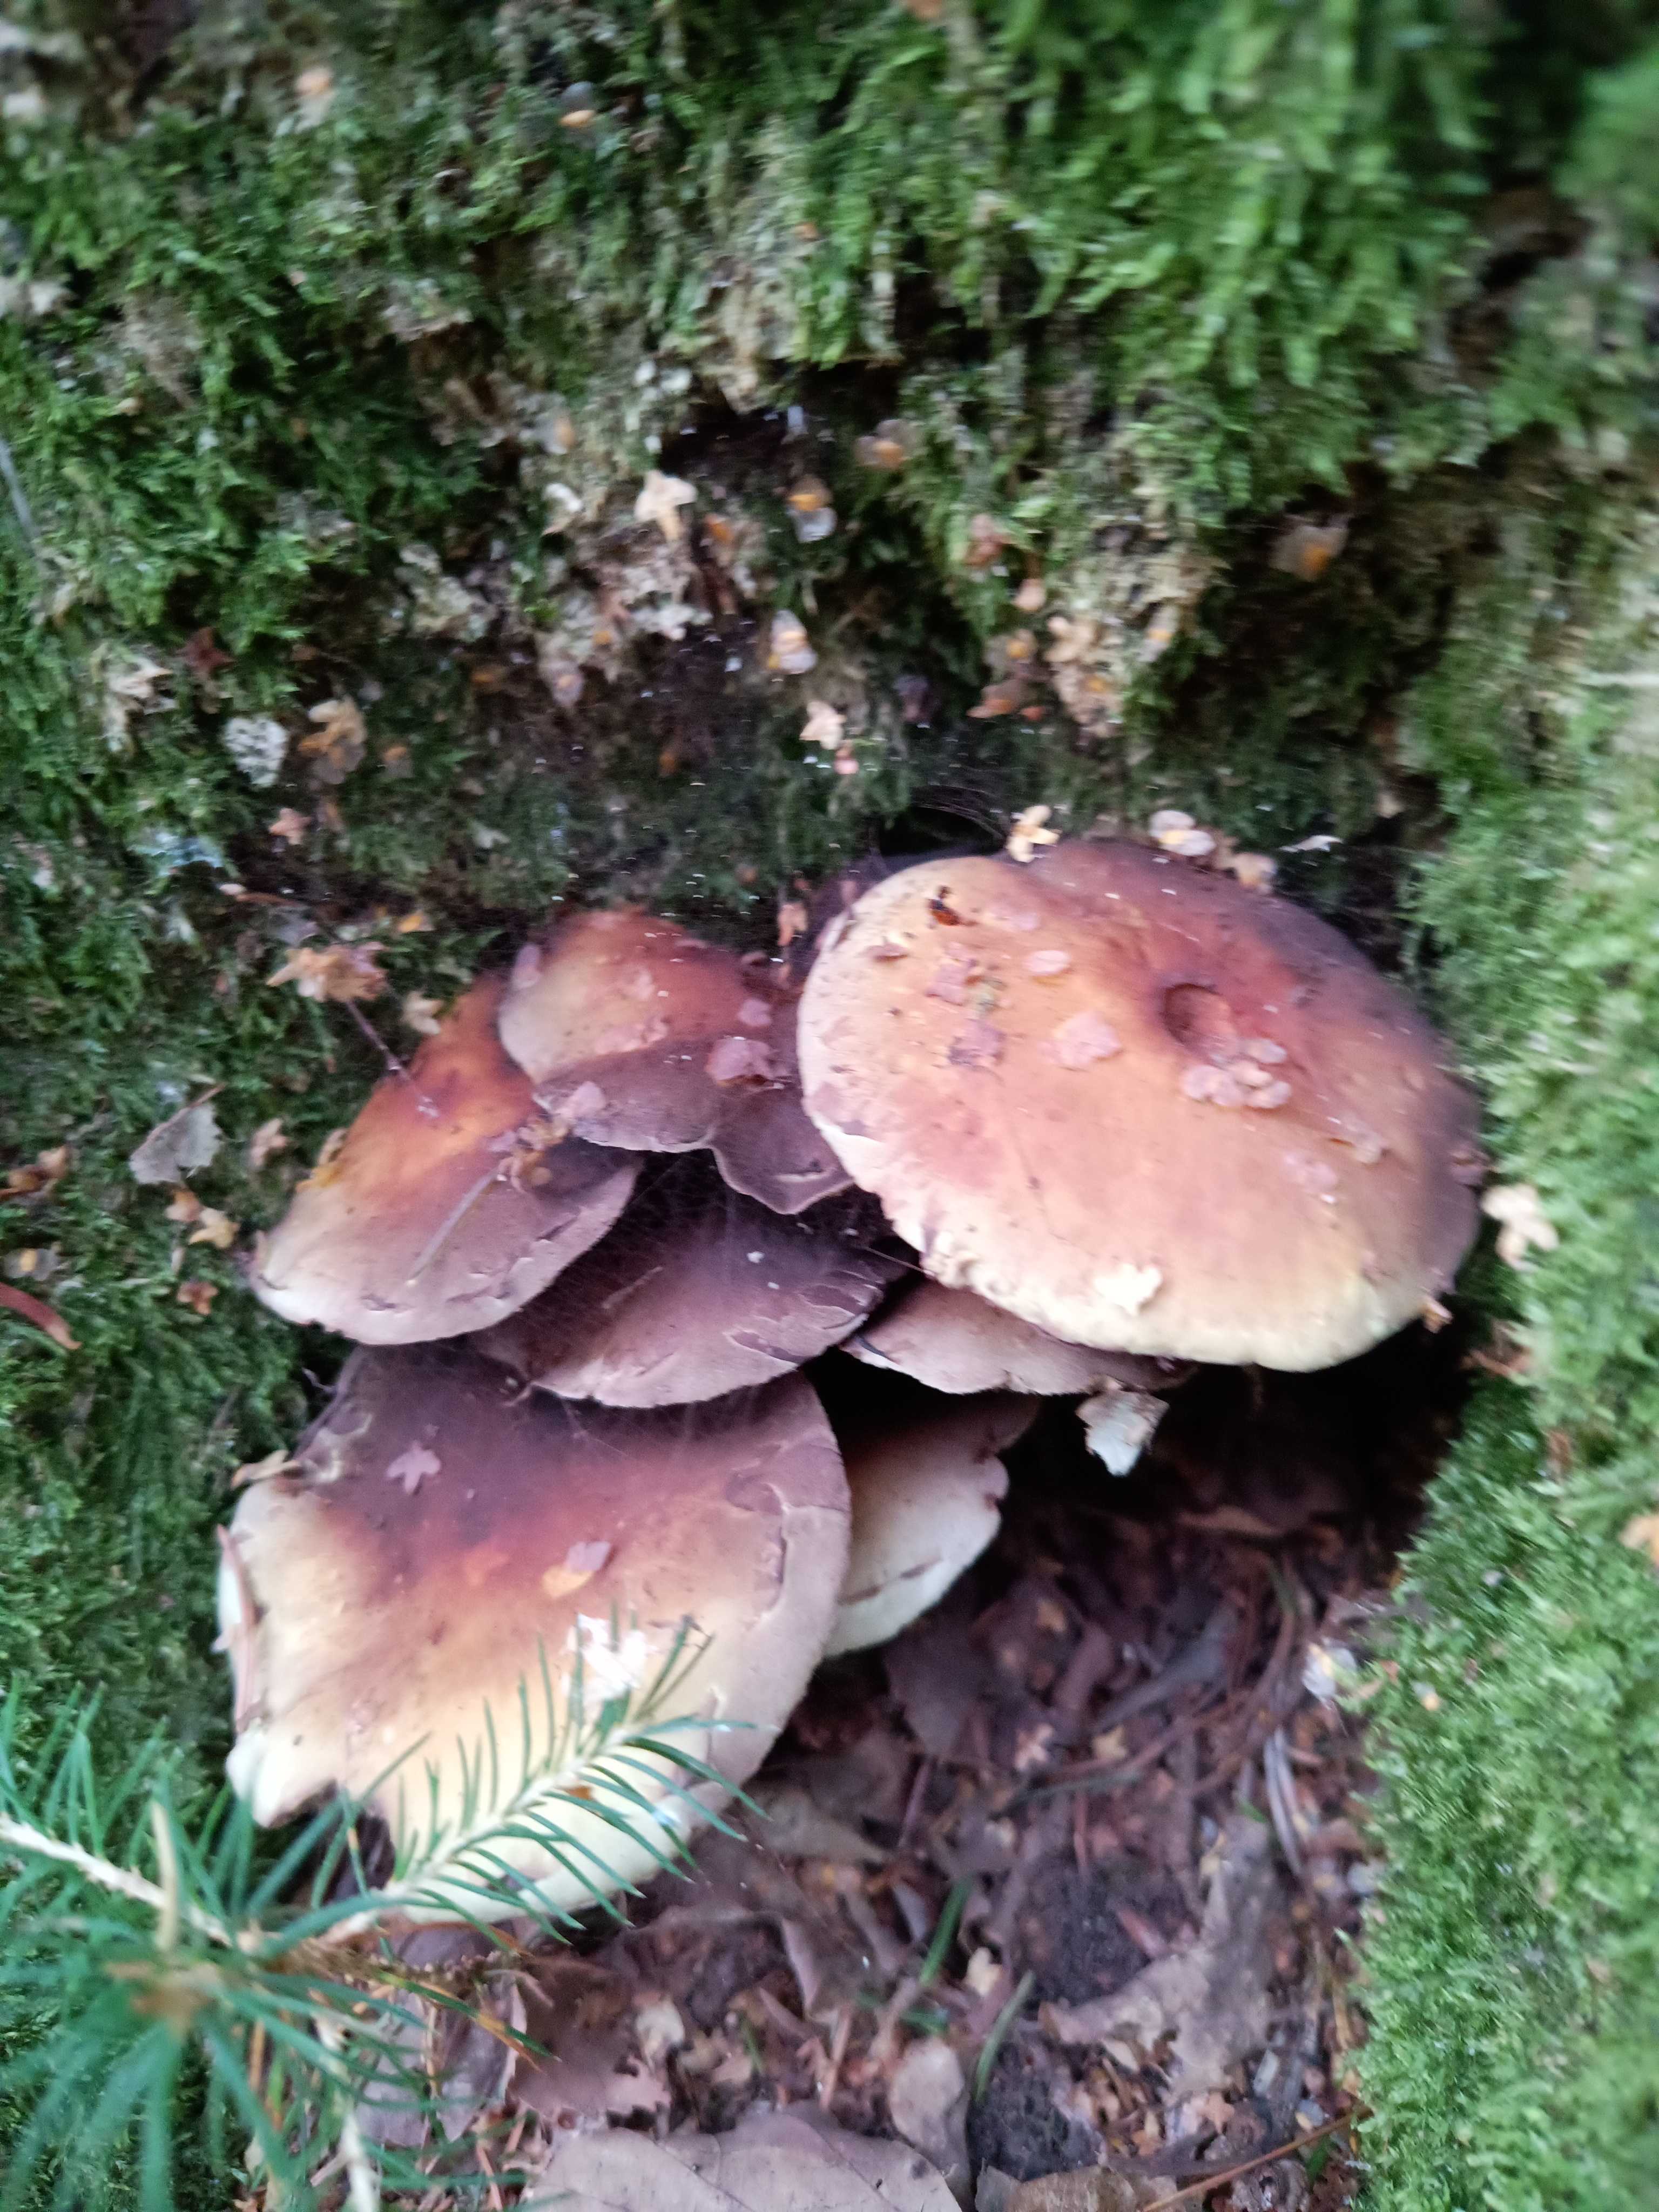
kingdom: Fungi
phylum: Basidiomycota
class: Agaricomycetes
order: Agaricales
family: Strophariaceae
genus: Hypholoma
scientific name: Hypholoma
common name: svovlhat
